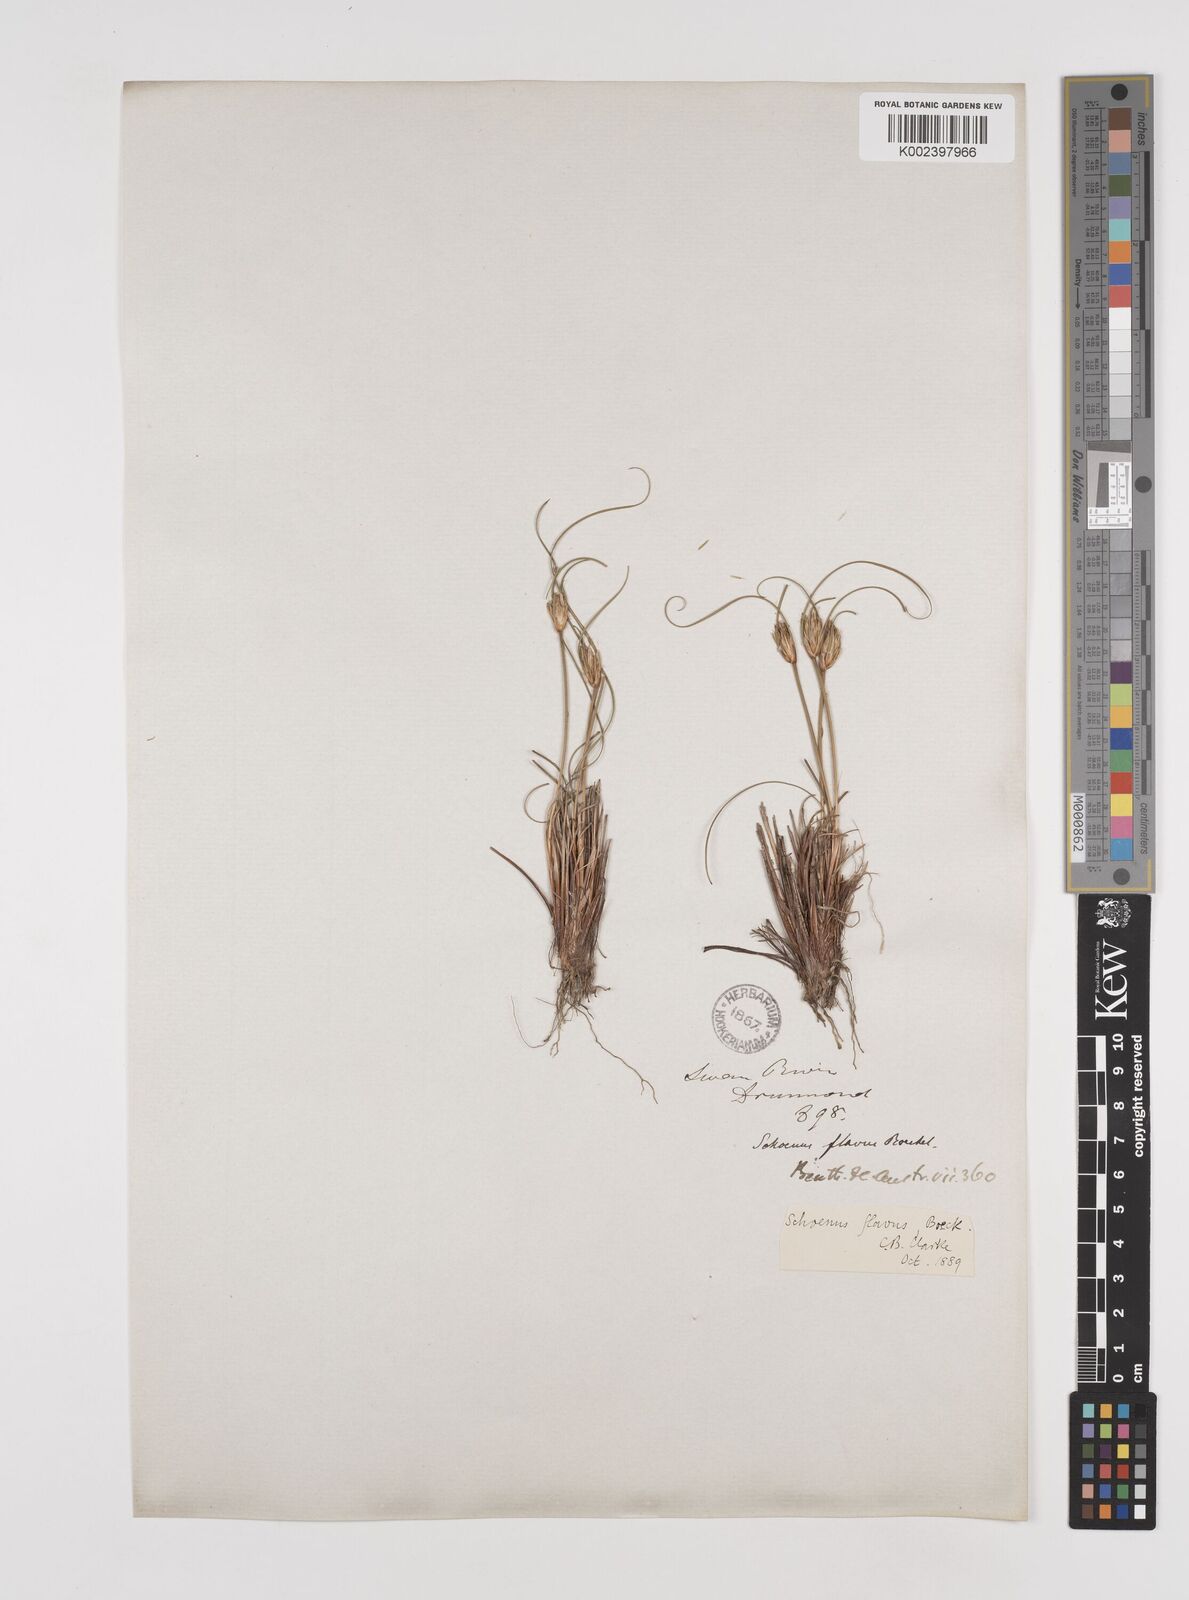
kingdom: Plantae
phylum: Tracheophyta
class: Liliopsida
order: Poales
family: Cyperaceae
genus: Schoenus
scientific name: Schoenus subflavus
